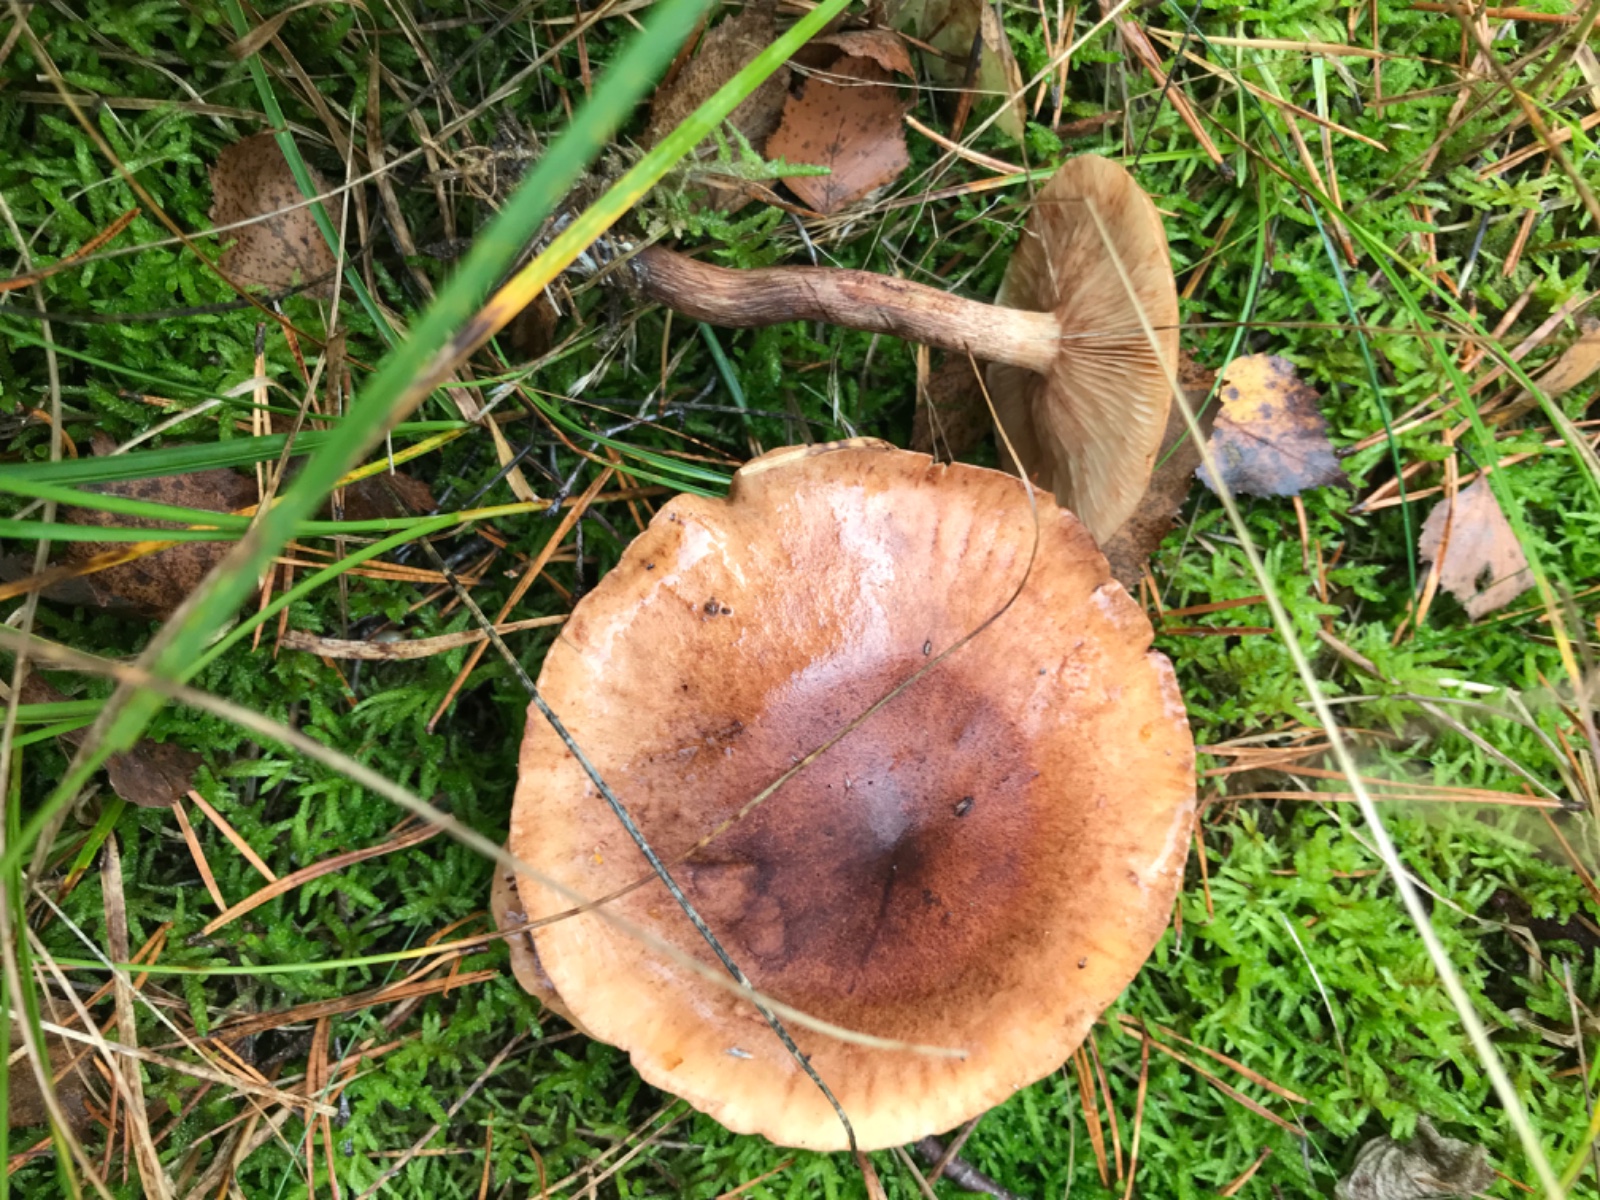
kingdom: Fungi
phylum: Basidiomycota
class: Agaricomycetes
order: Agaricales
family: Tricholomataceae
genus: Tricholoma
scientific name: Tricholoma fulvum
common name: birke-ridderhat
